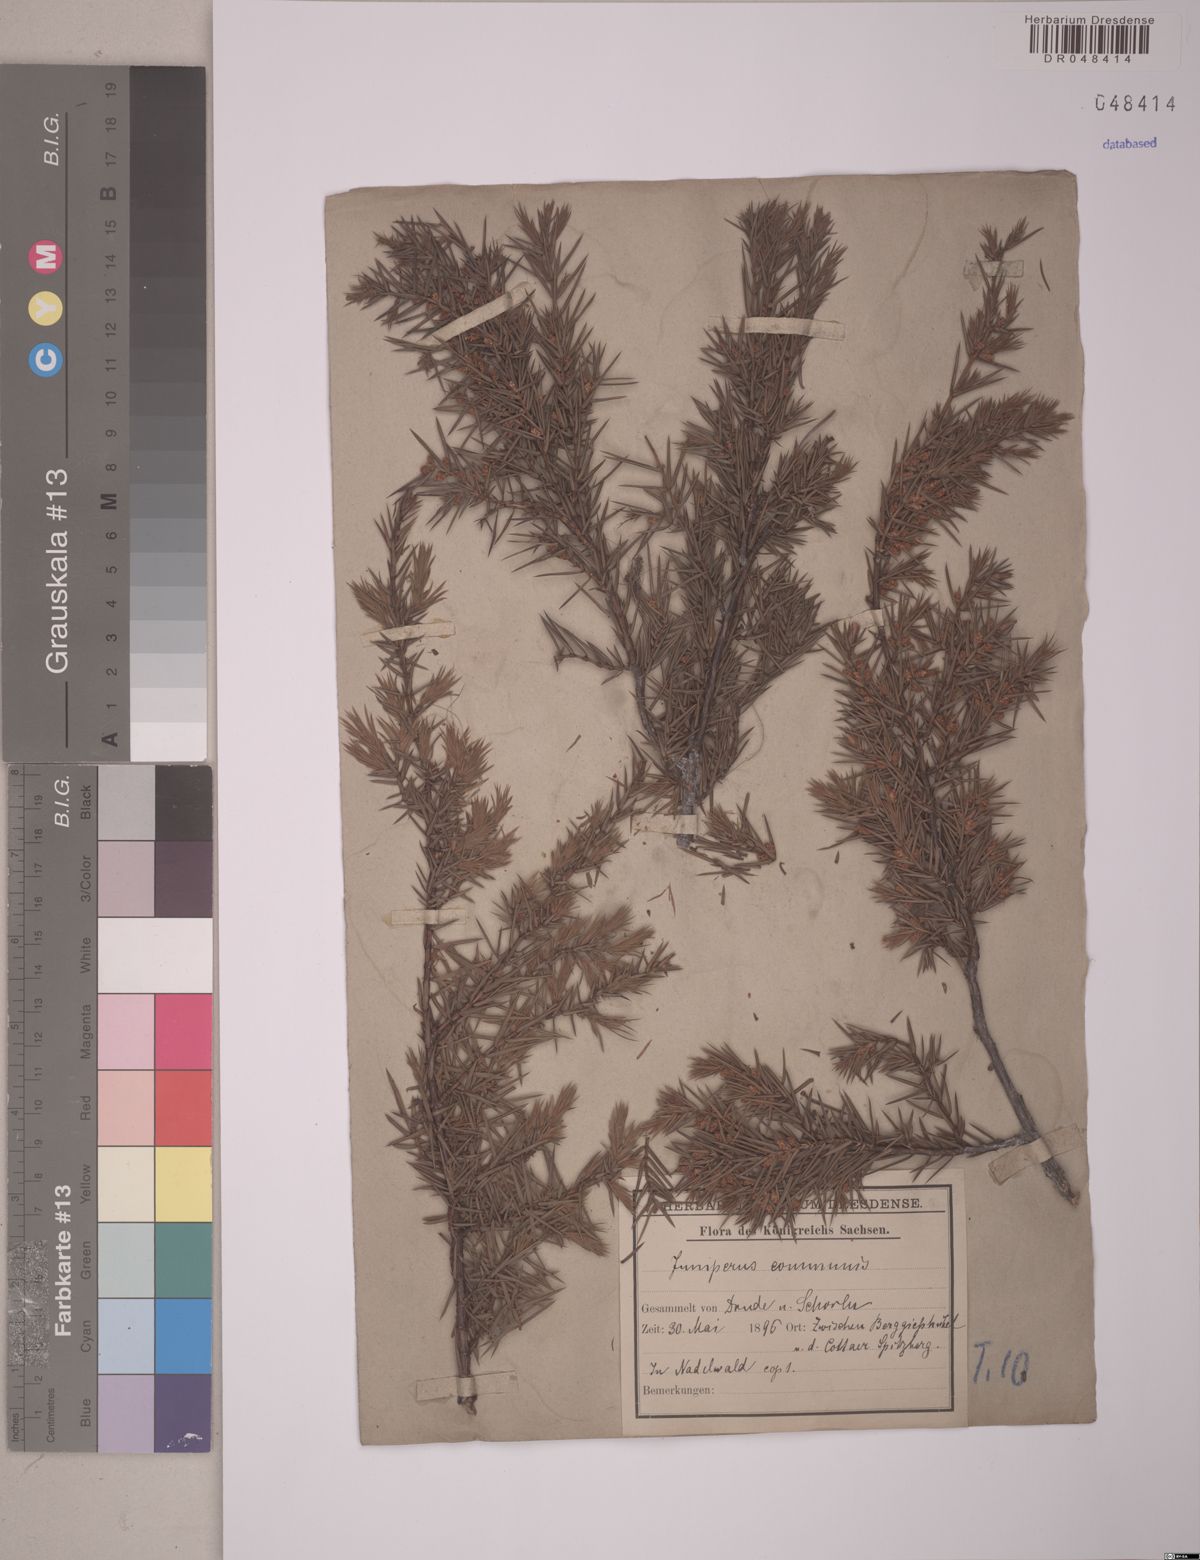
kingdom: Plantae
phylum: Tracheophyta
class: Pinopsida
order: Pinales
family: Cupressaceae
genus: Juniperus
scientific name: Juniperus communis
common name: Common juniper
